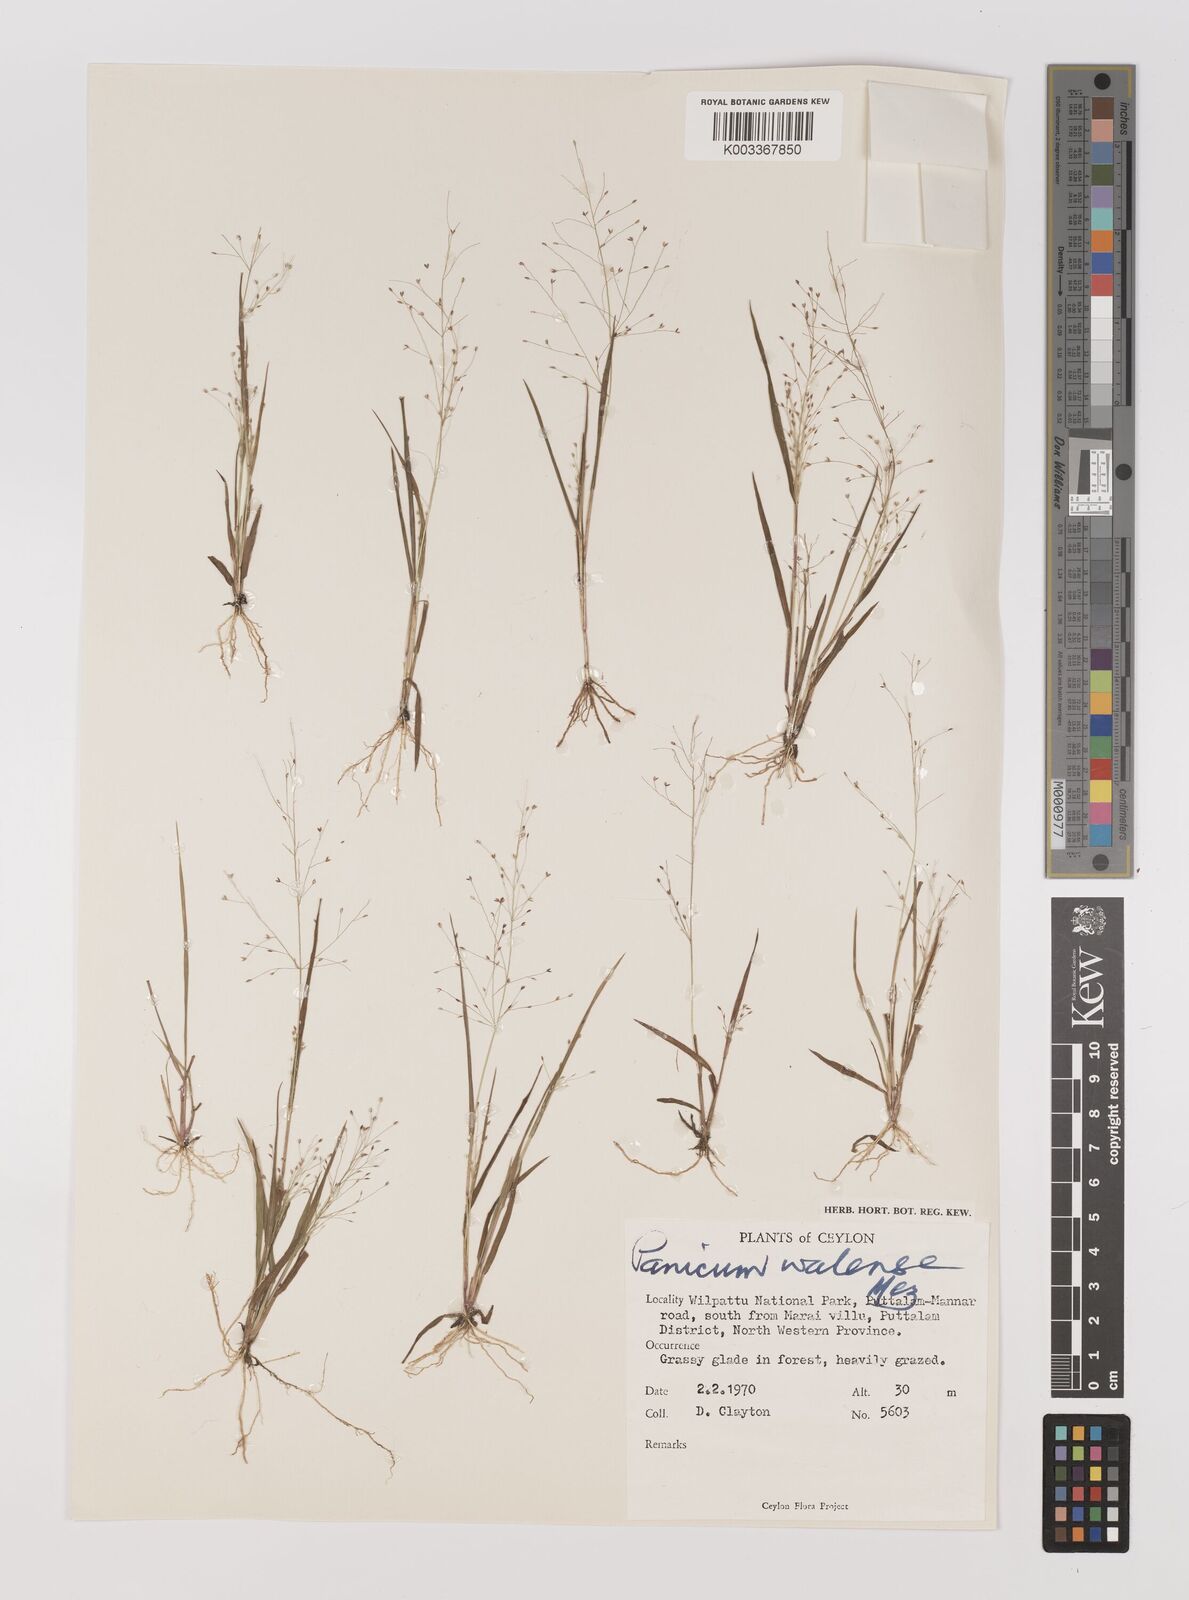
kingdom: Plantae
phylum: Tracheophyta
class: Liliopsida
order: Poales
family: Poaceae
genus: Panicum
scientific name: Panicum humile
